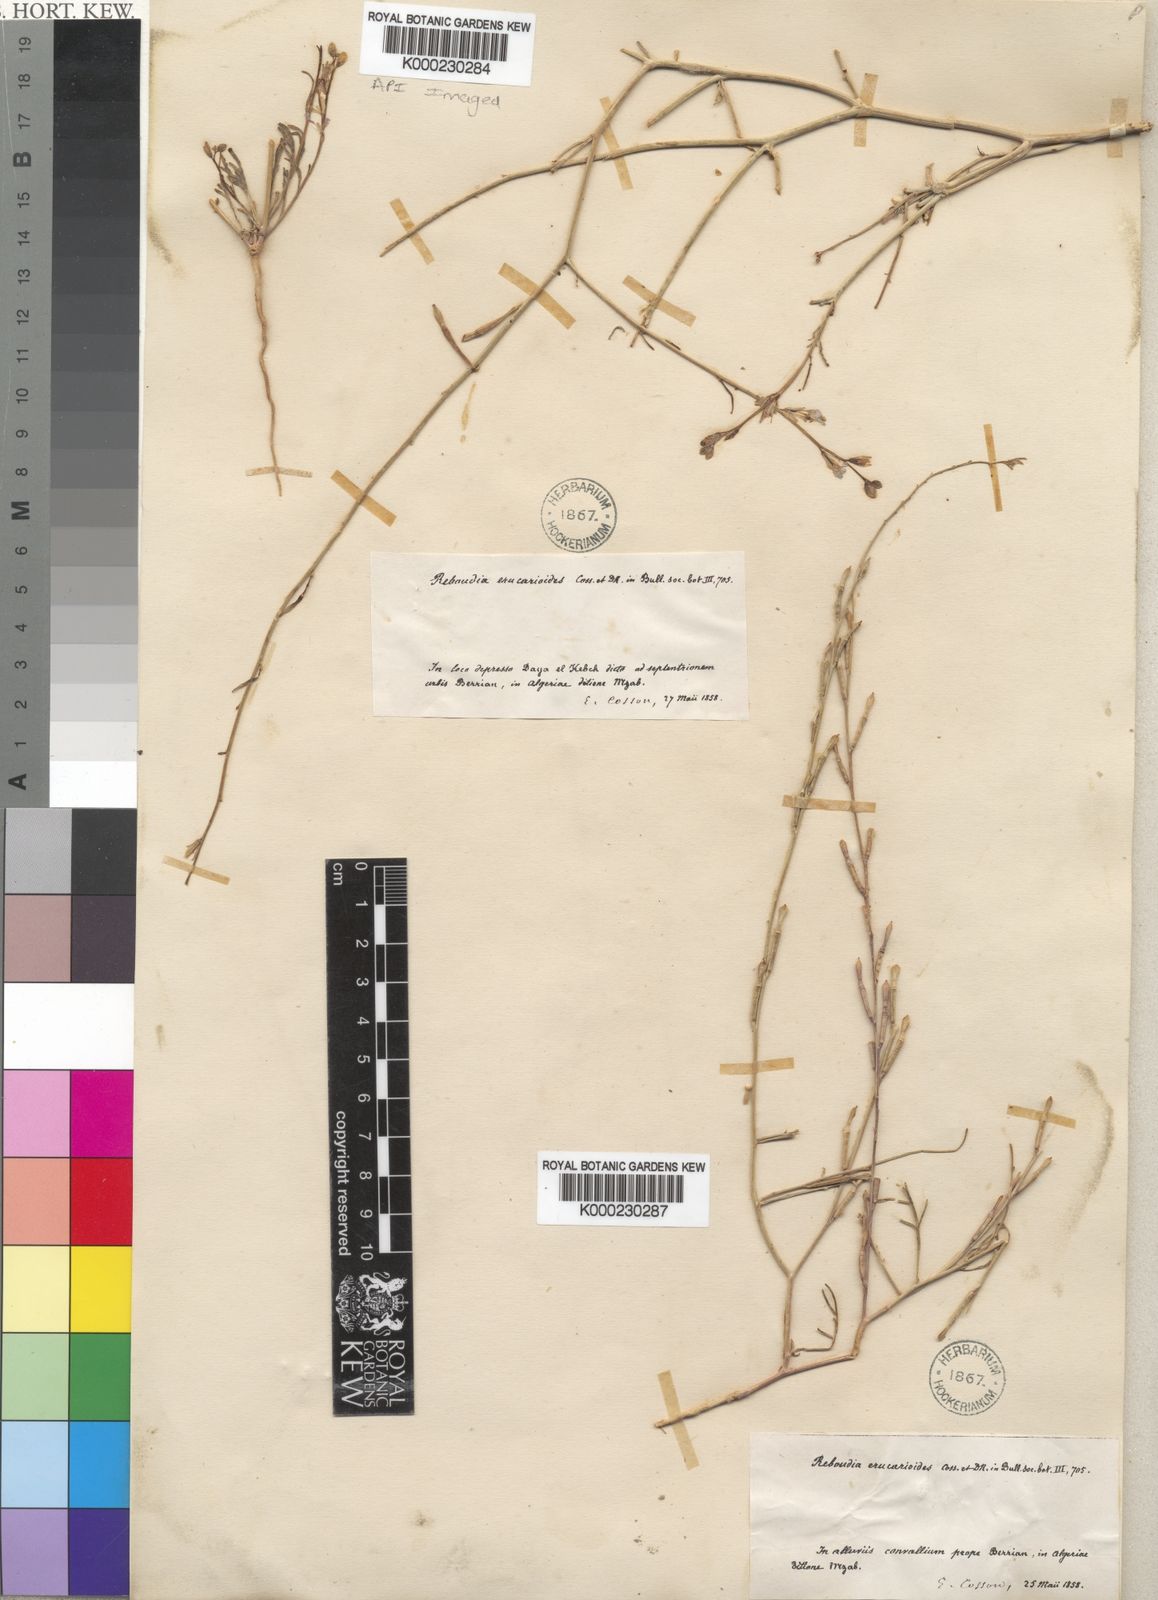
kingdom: Plantae
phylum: Tracheophyta
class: Magnoliopsida
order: Brassicales
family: Brassicaceae
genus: Erucaria
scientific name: Erucaria erucarioides
